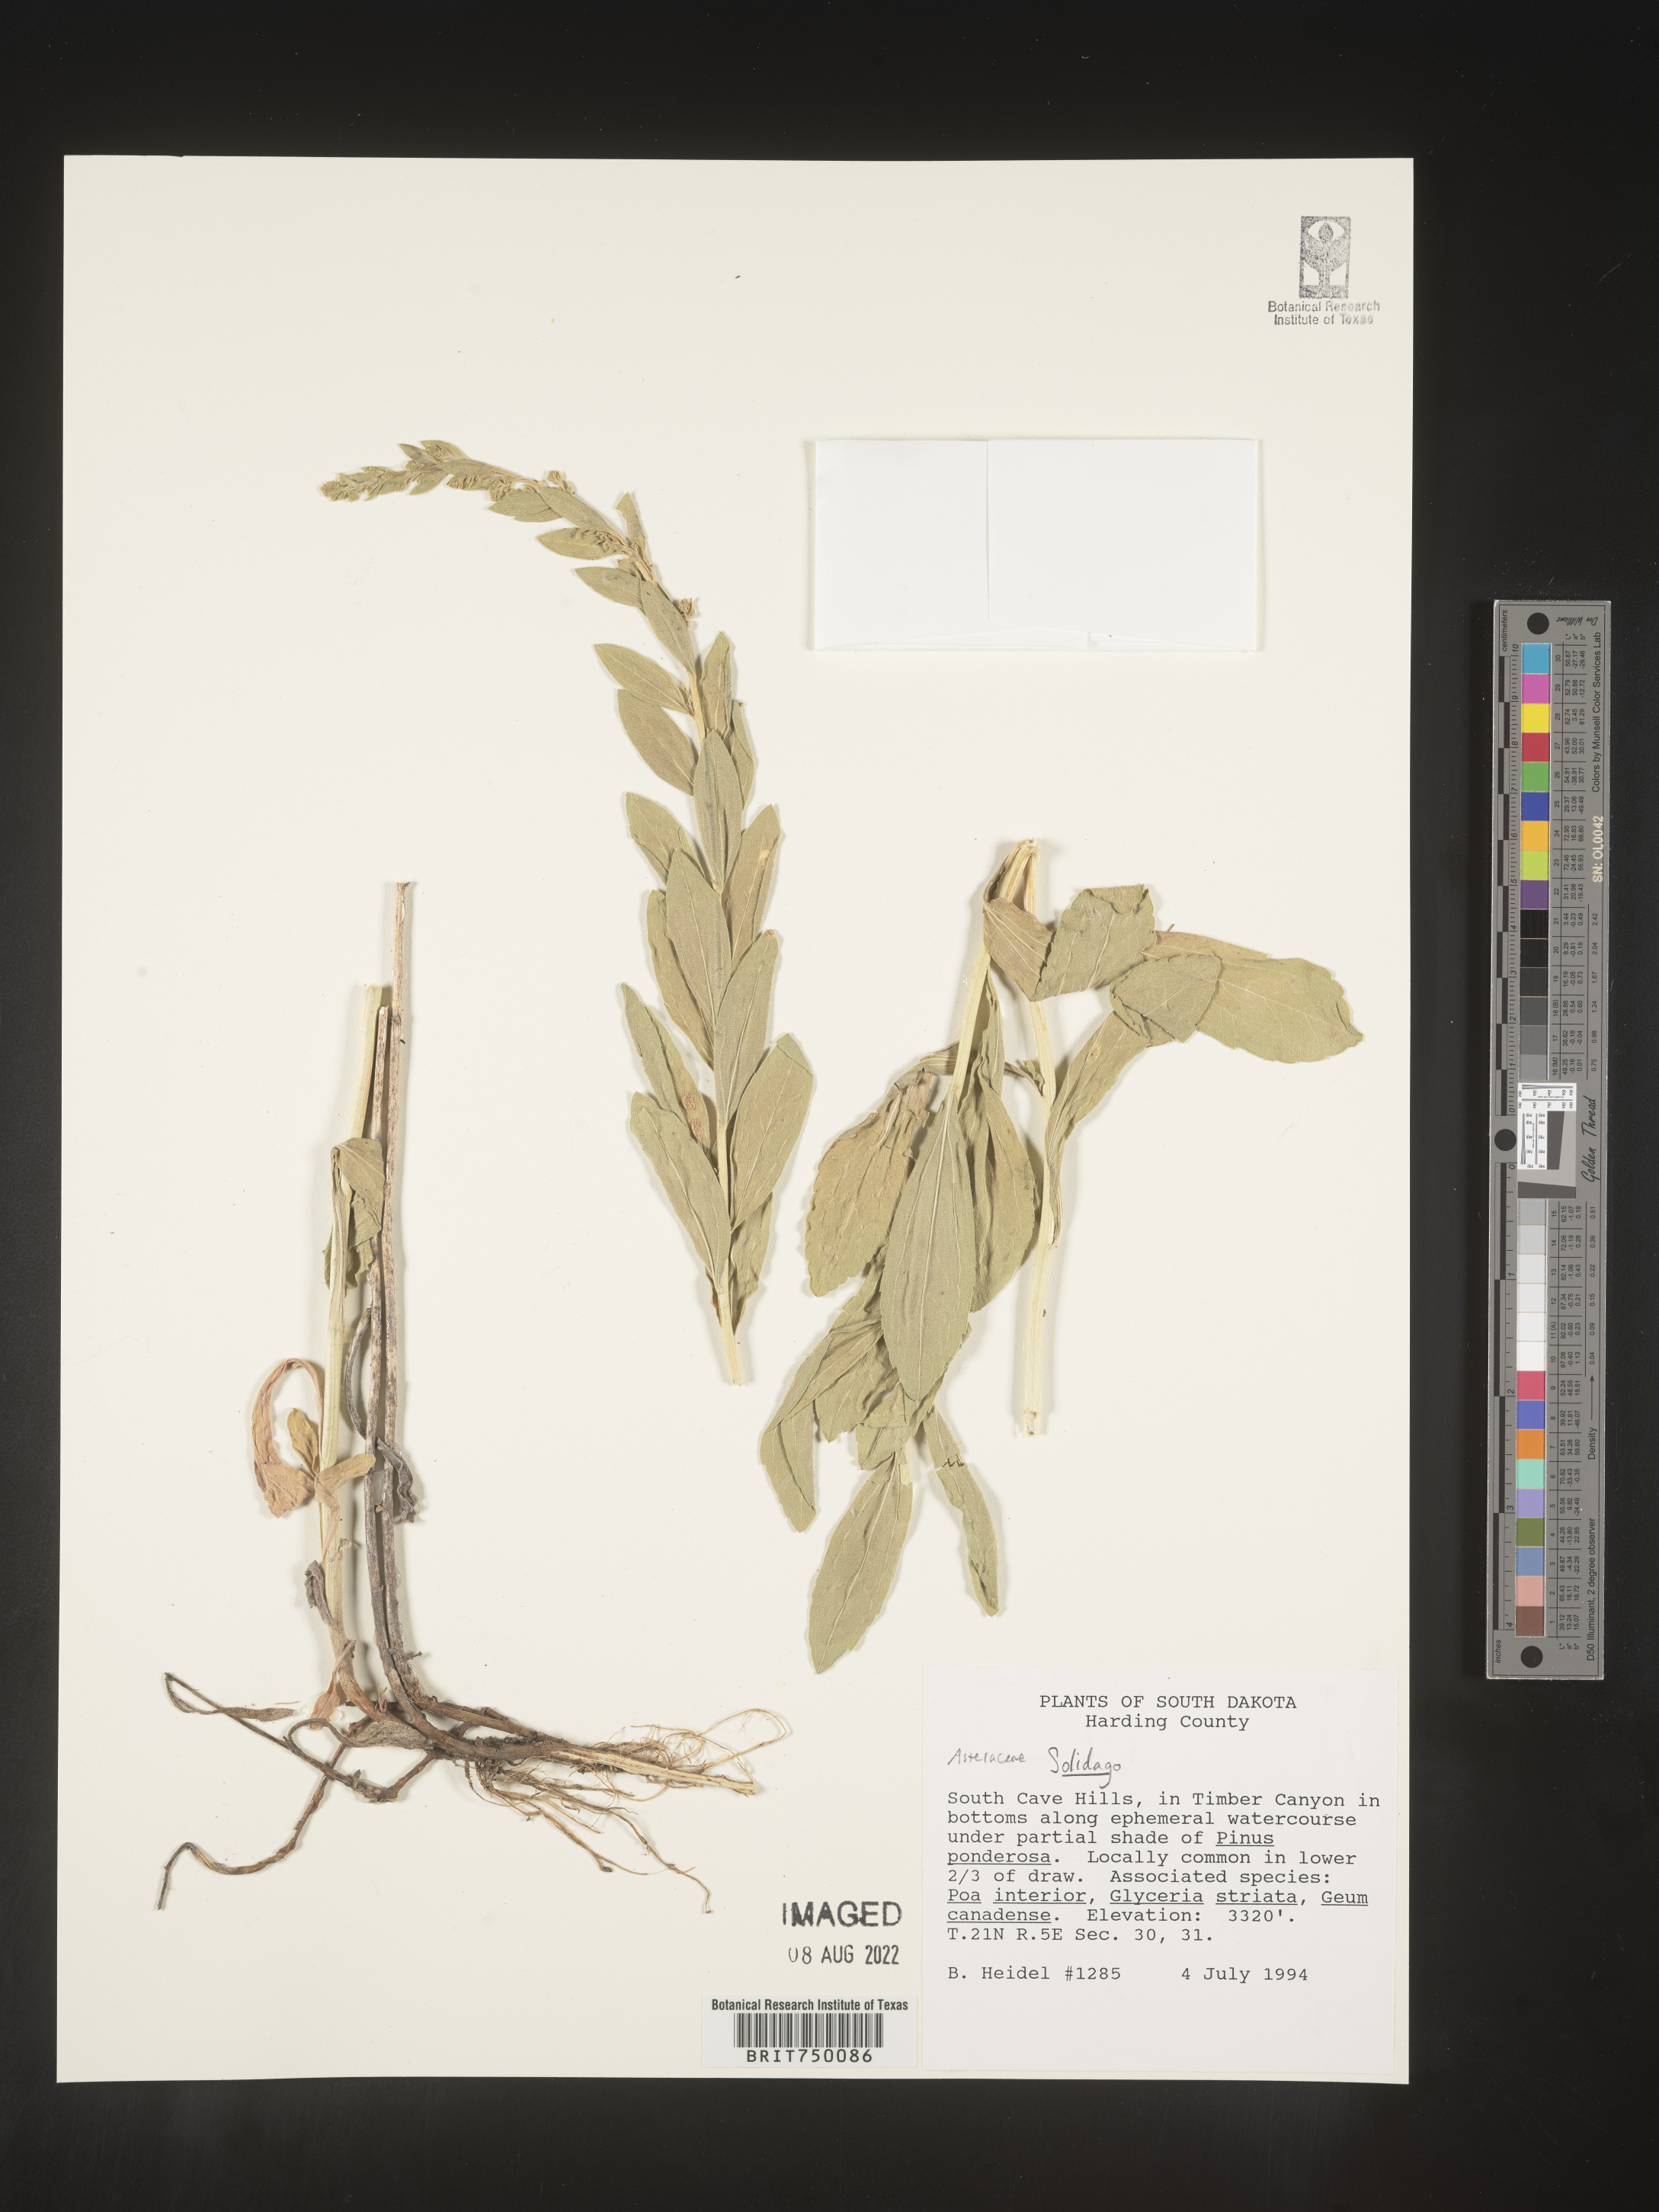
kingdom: Plantae
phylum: Tracheophyta
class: Magnoliopsida
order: Asterales
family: Asteraceae
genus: Solidago
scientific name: Solidago velutina
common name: Three-nerve goldenrod
